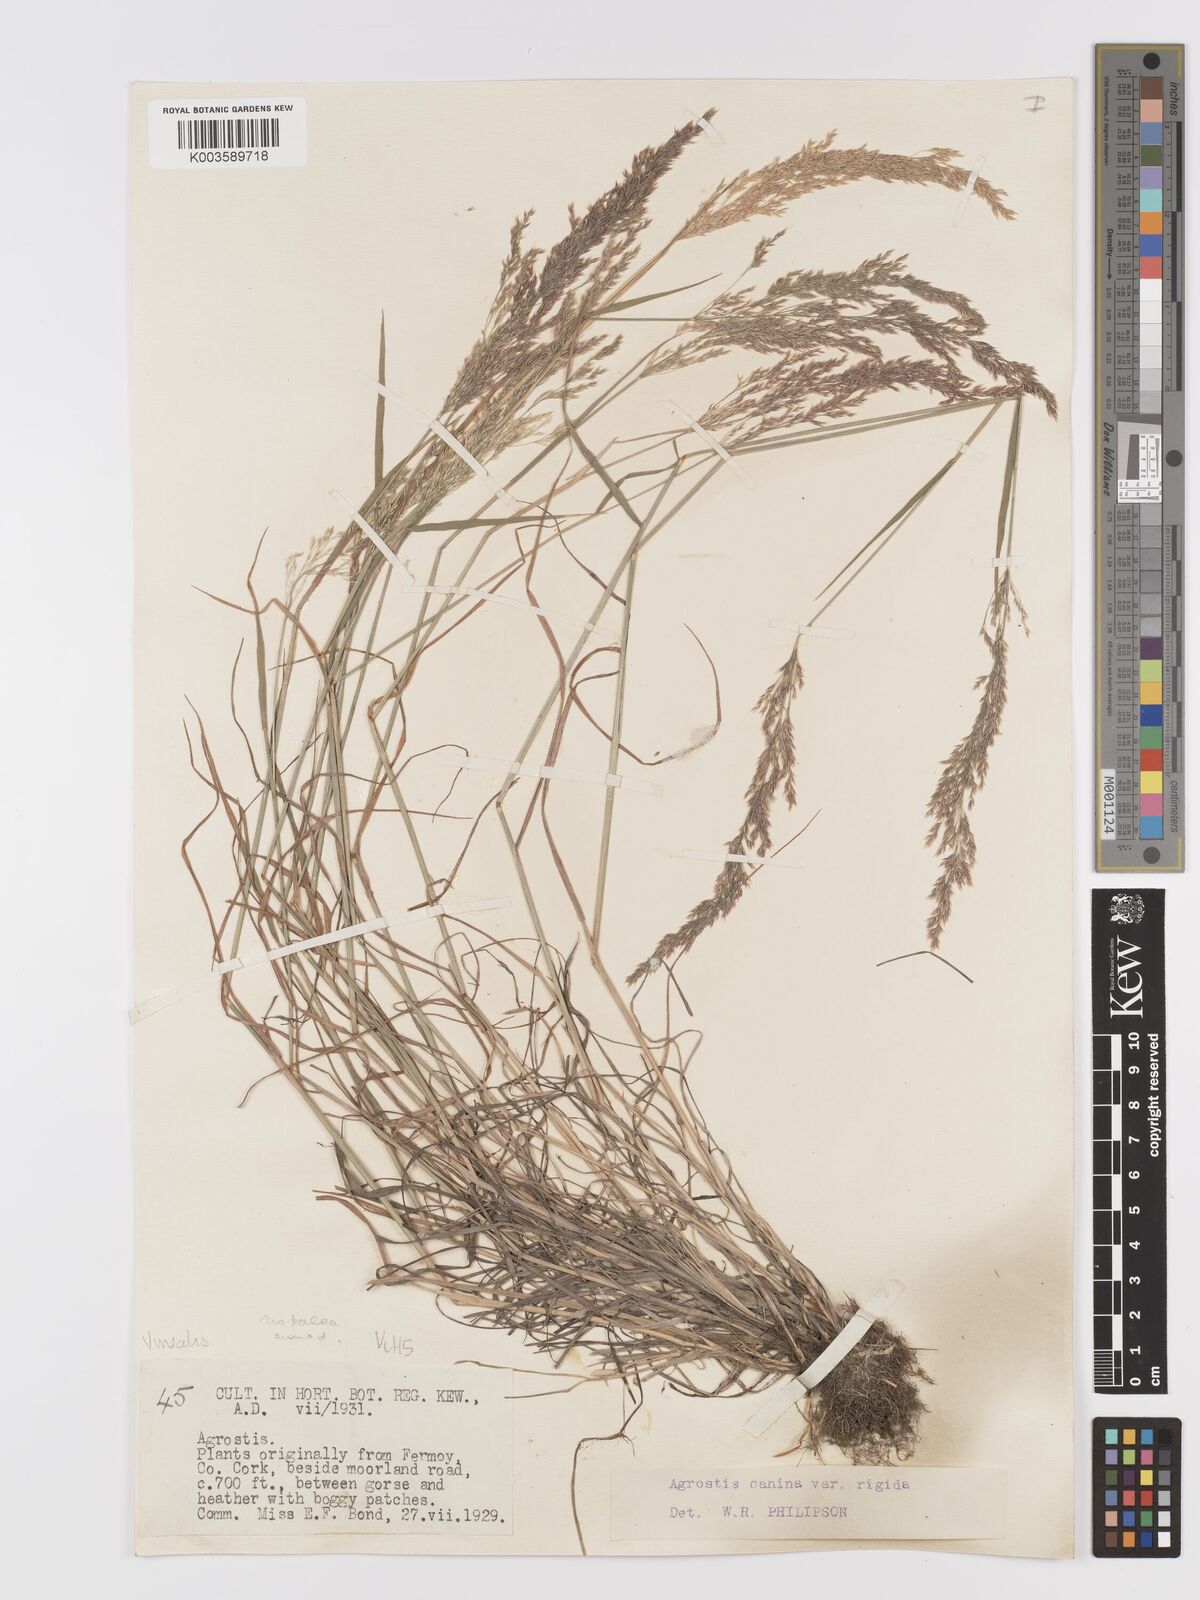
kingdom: Plantae
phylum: Tracheophyta
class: Liliopsida
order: Poales
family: Poaceae
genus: Agrostis
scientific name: Agrostis
